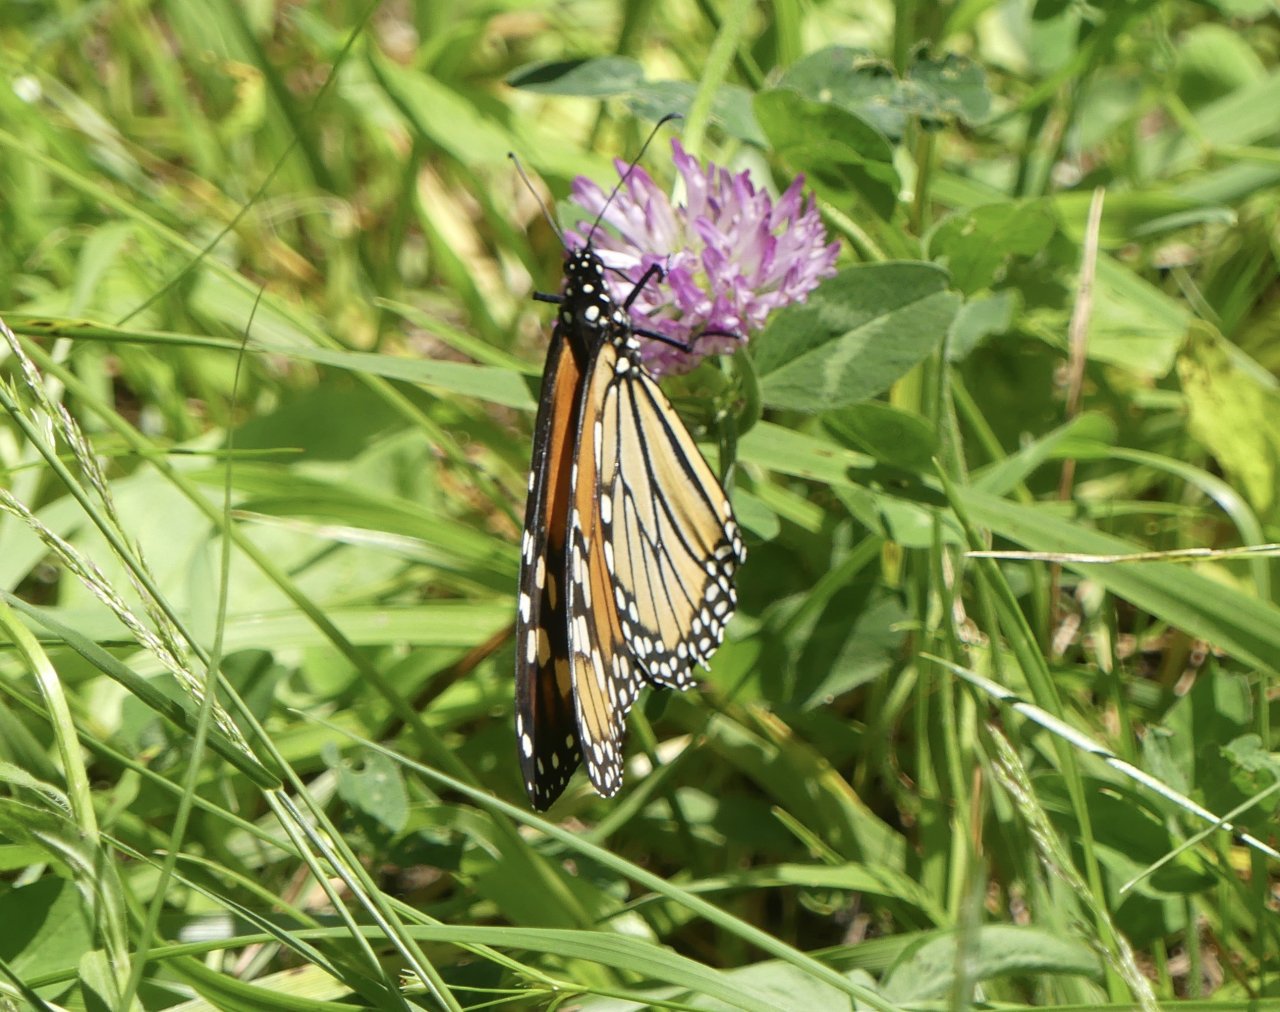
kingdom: Animalia
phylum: Arthropoda
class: Insecta
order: Lepidoptera
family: Nymphalidae
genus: Danaus
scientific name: Danaus plexippus
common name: Monarch
